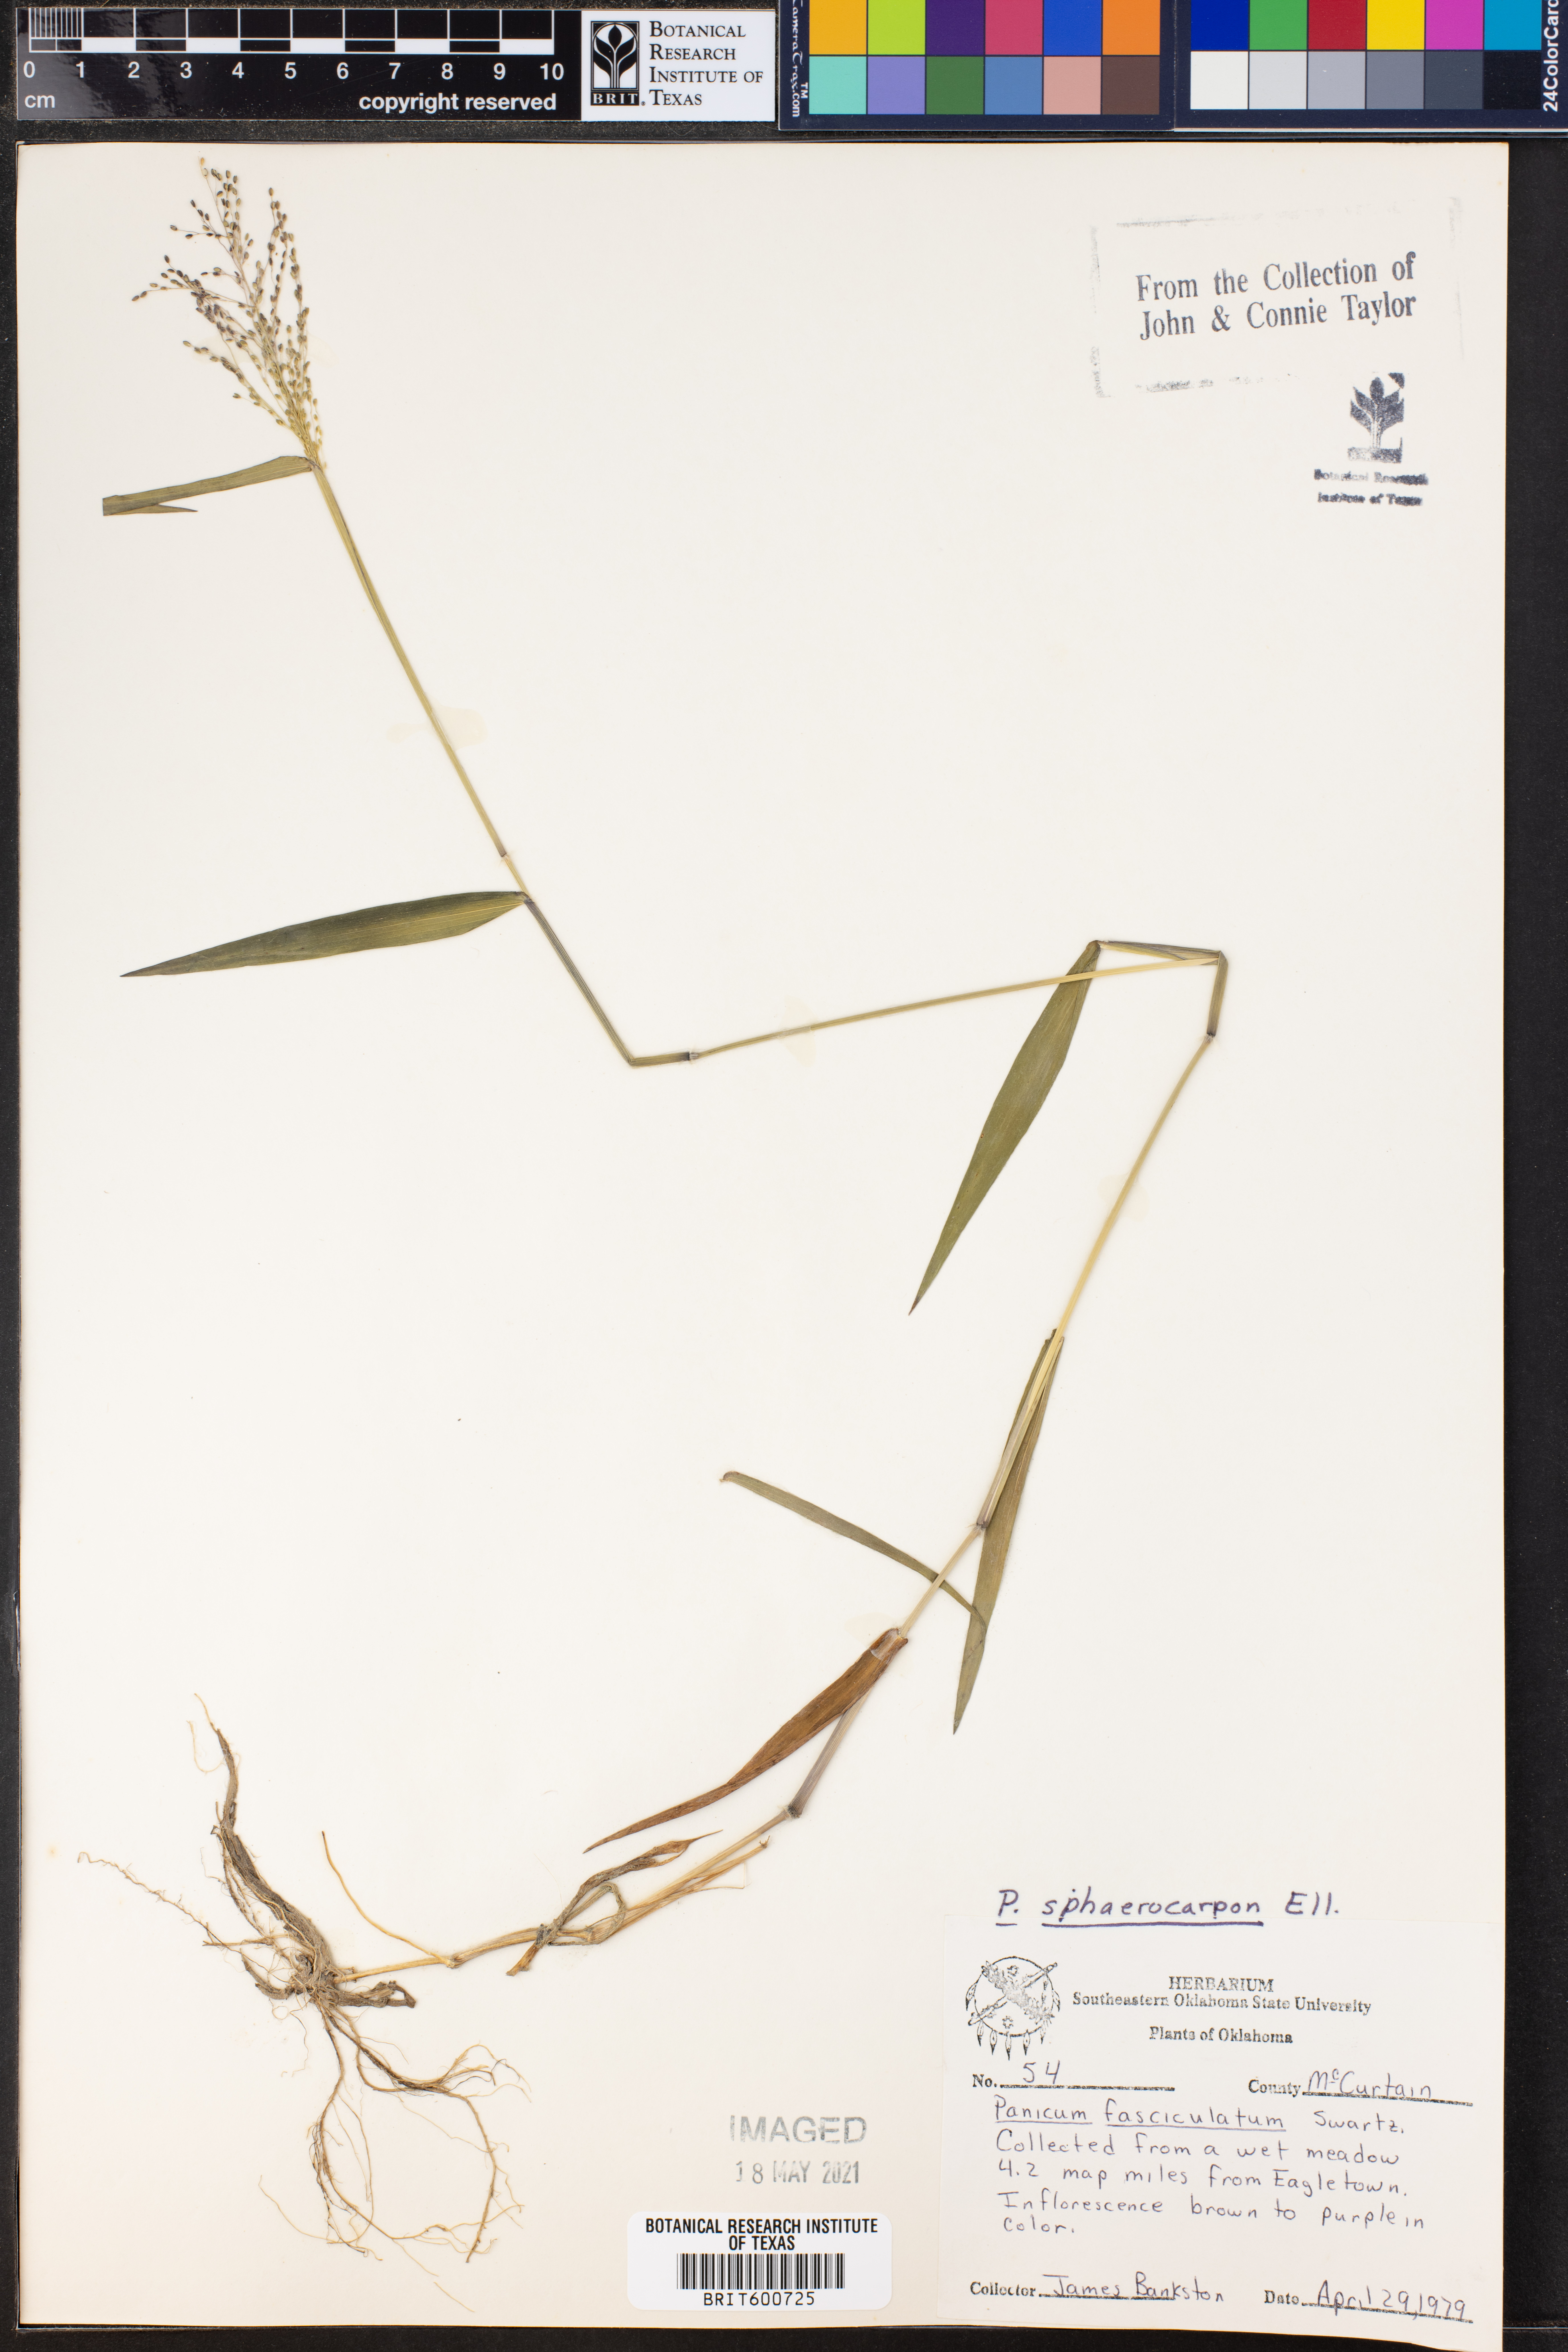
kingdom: Plantae
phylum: Tracheophyta
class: Liliopsida
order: Poales
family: Poaceae
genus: Dichanthelium
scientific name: Dichanthelium sphaerocarpon
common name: Round-fruited panicgrass
